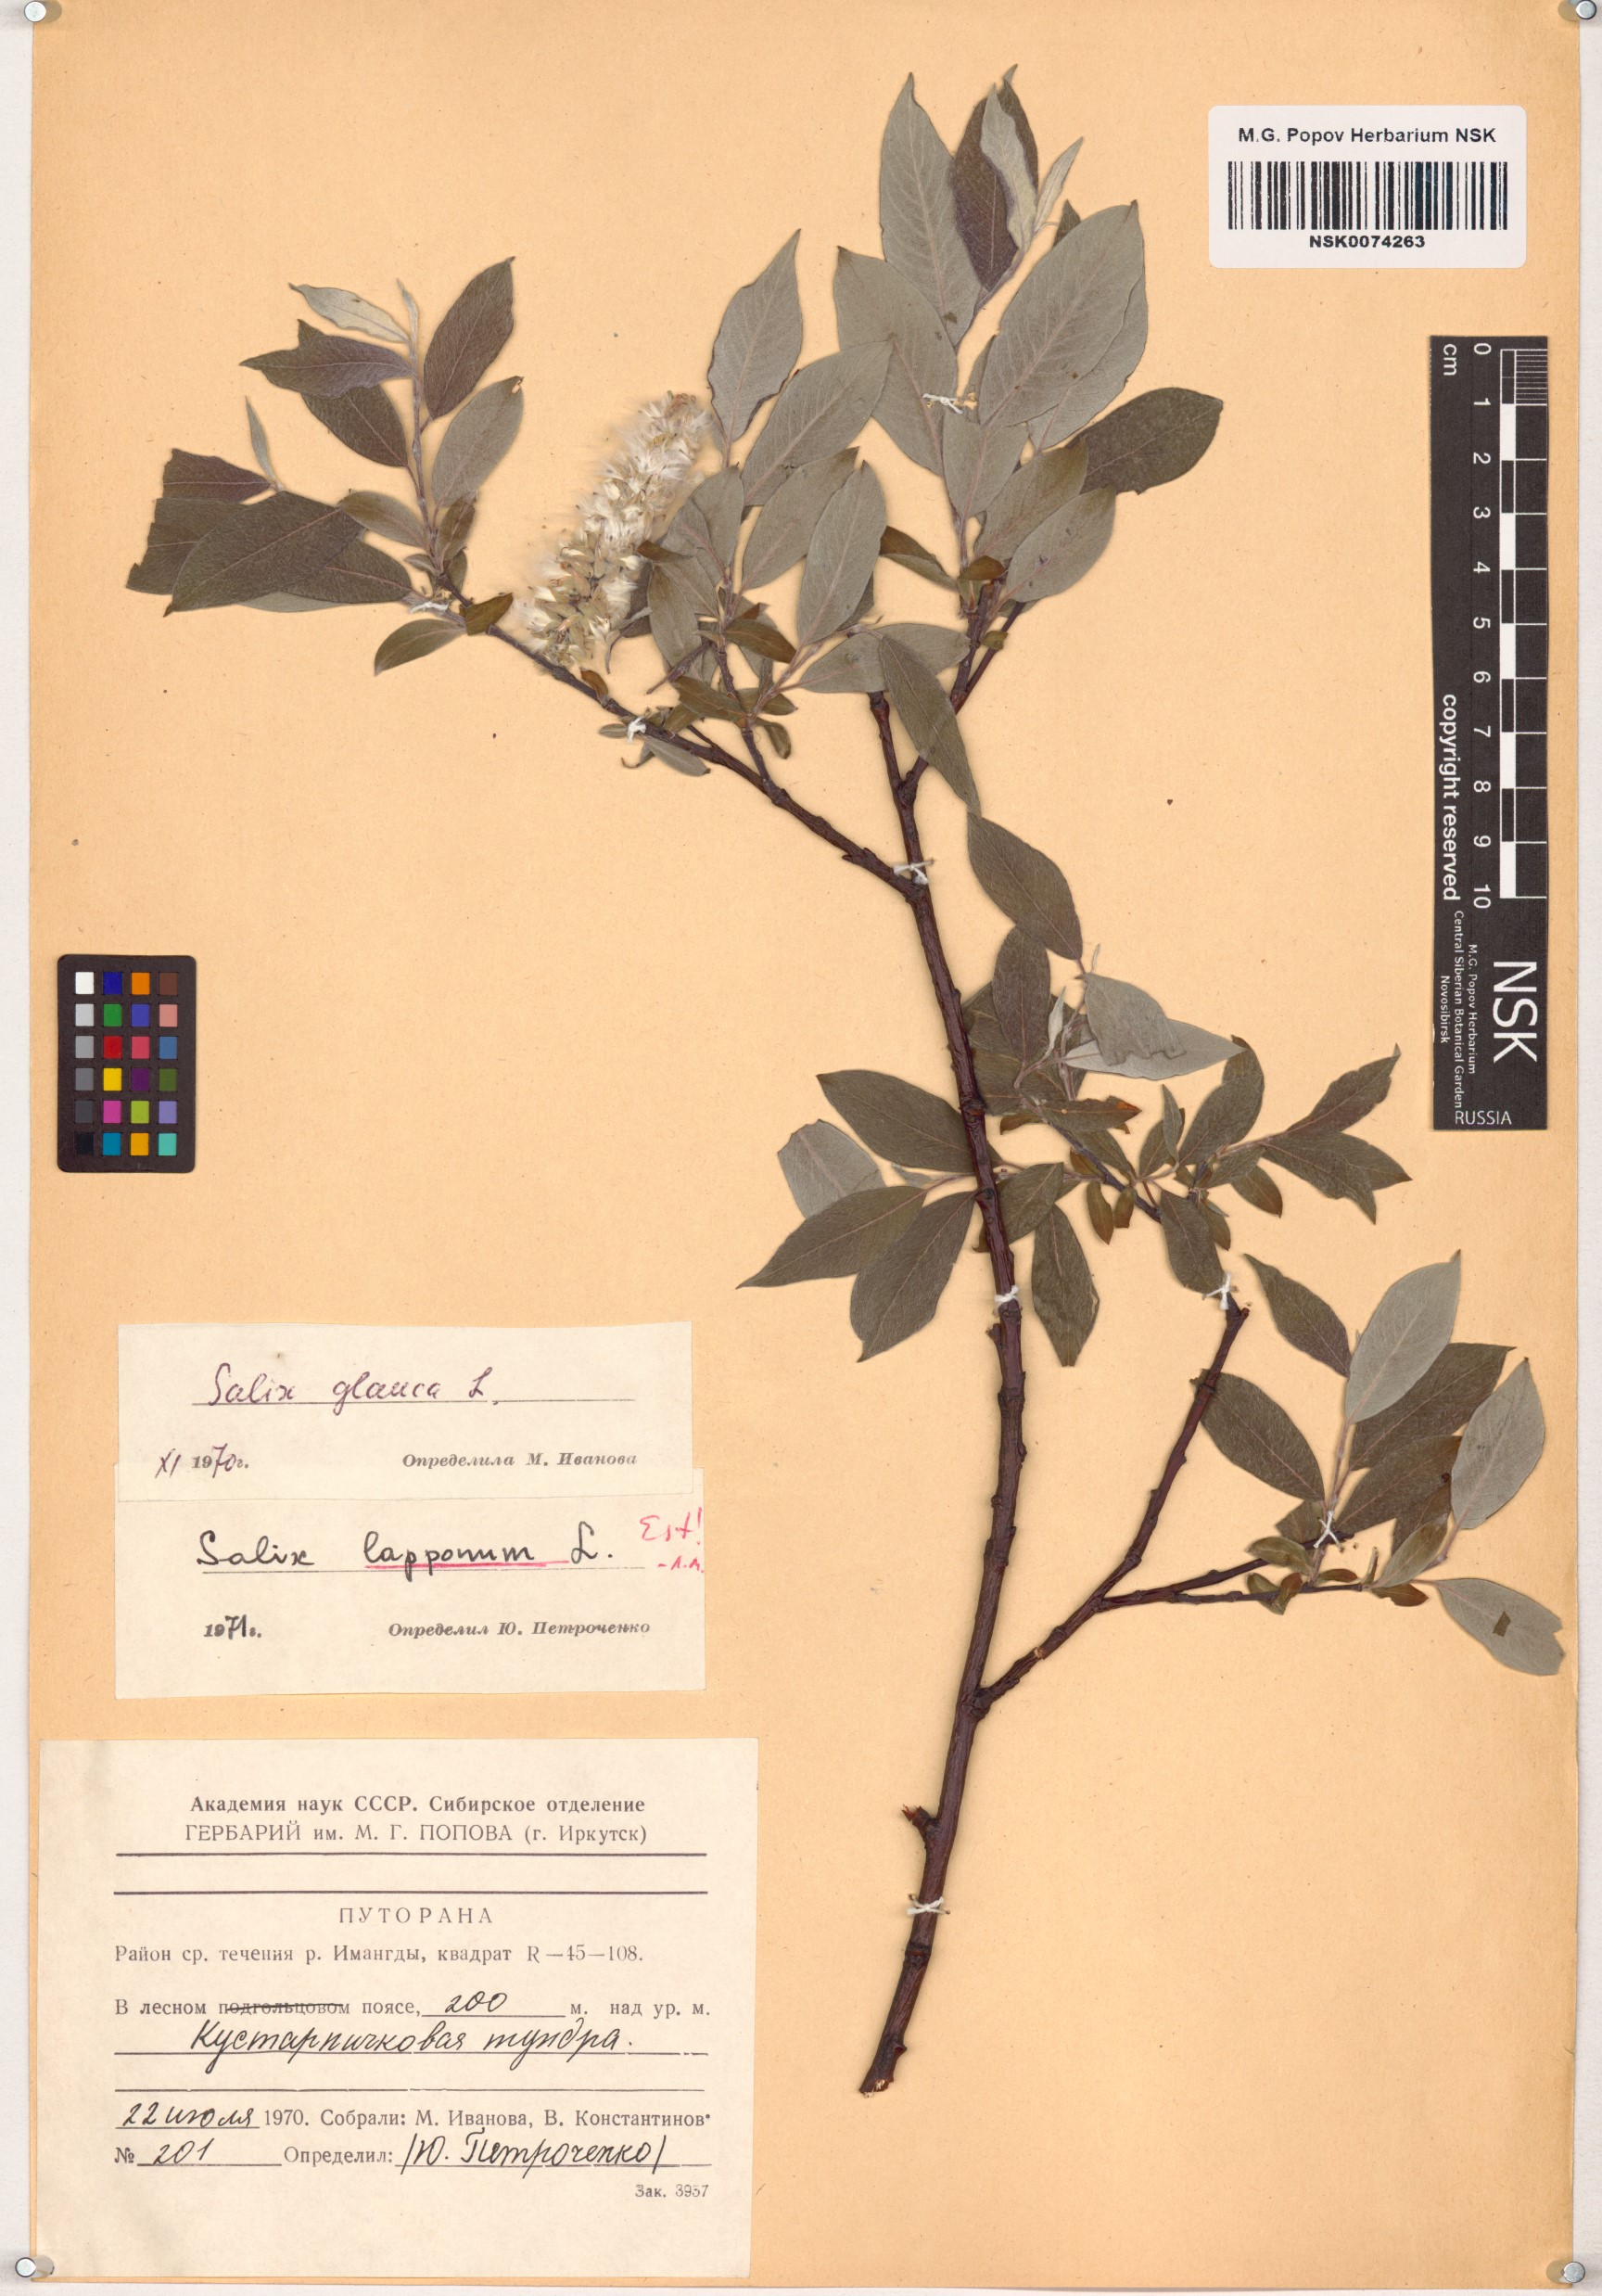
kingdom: Plantae
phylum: Tracheophyta
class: Magnoliopsida
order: Malpighiales
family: Salicaceae
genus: Salix
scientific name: Salix lapponum
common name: Downy willow
